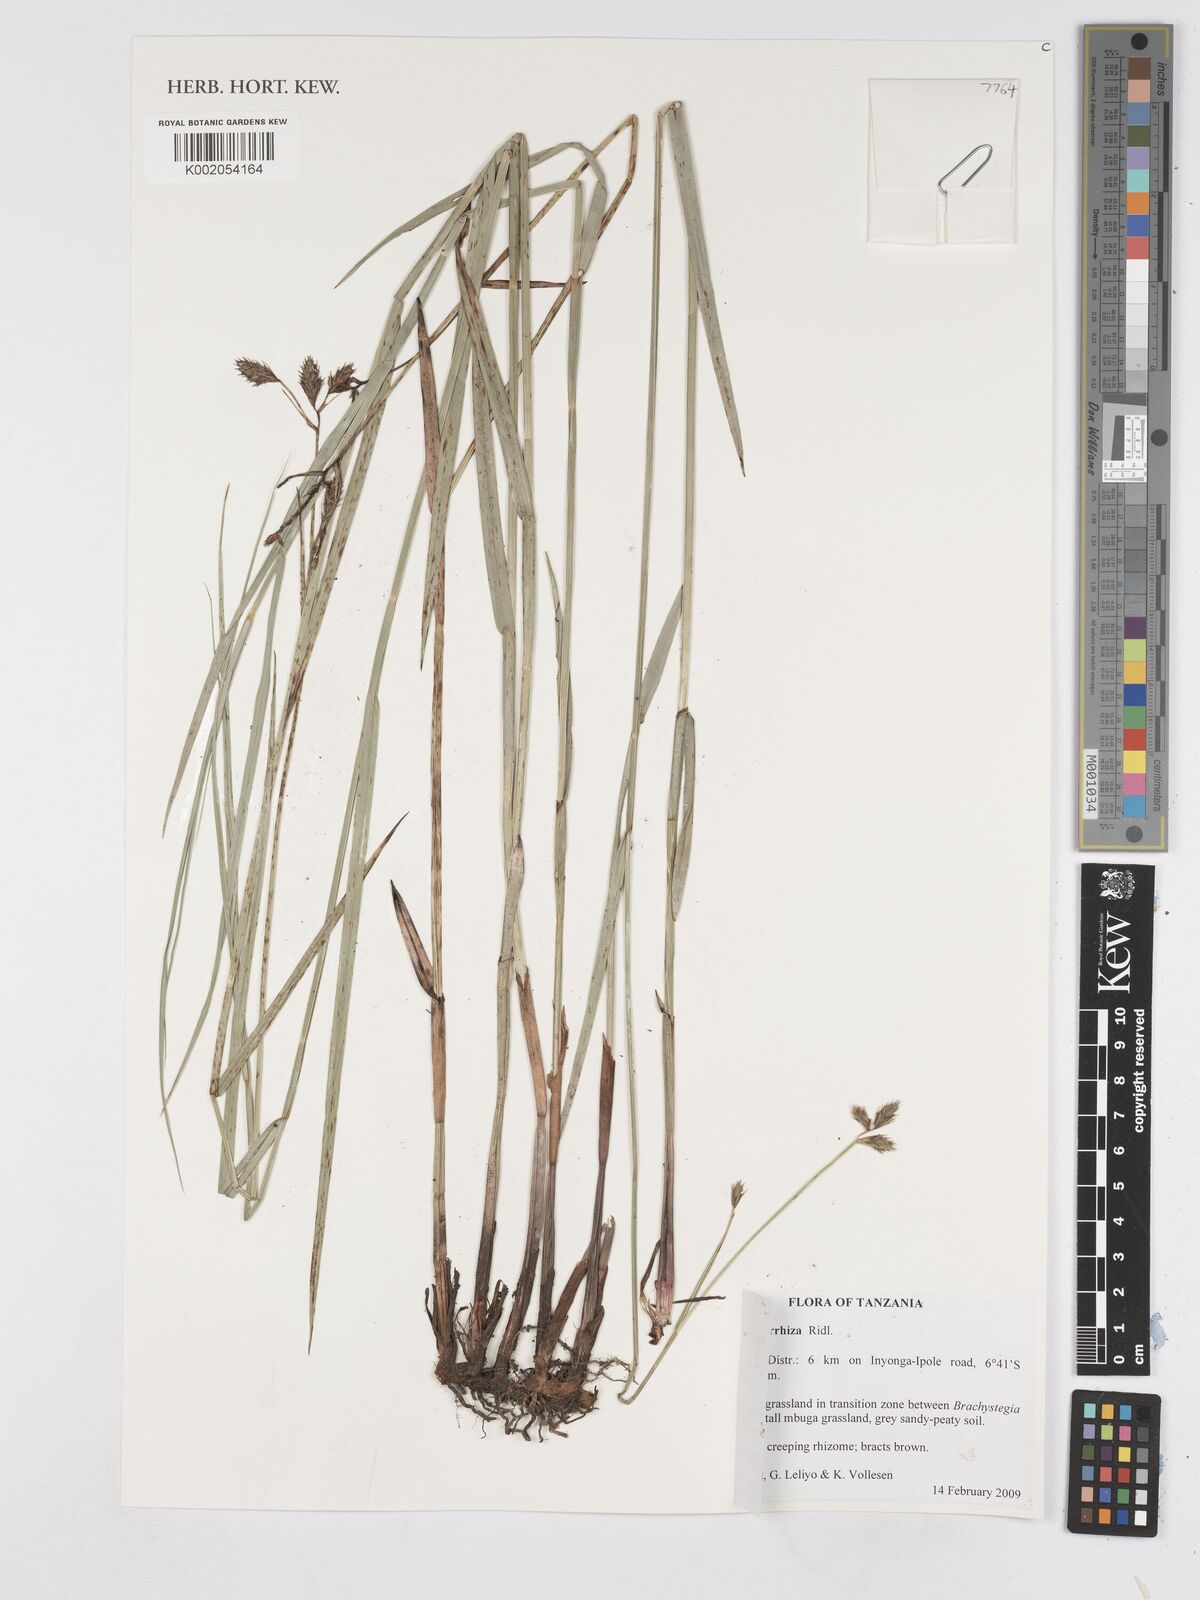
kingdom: Plantae
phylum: Tracheophyta
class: Liliopsida
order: Poales
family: Cyperaceae
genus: Fuirena
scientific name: Fuirena pachyrrhiza
